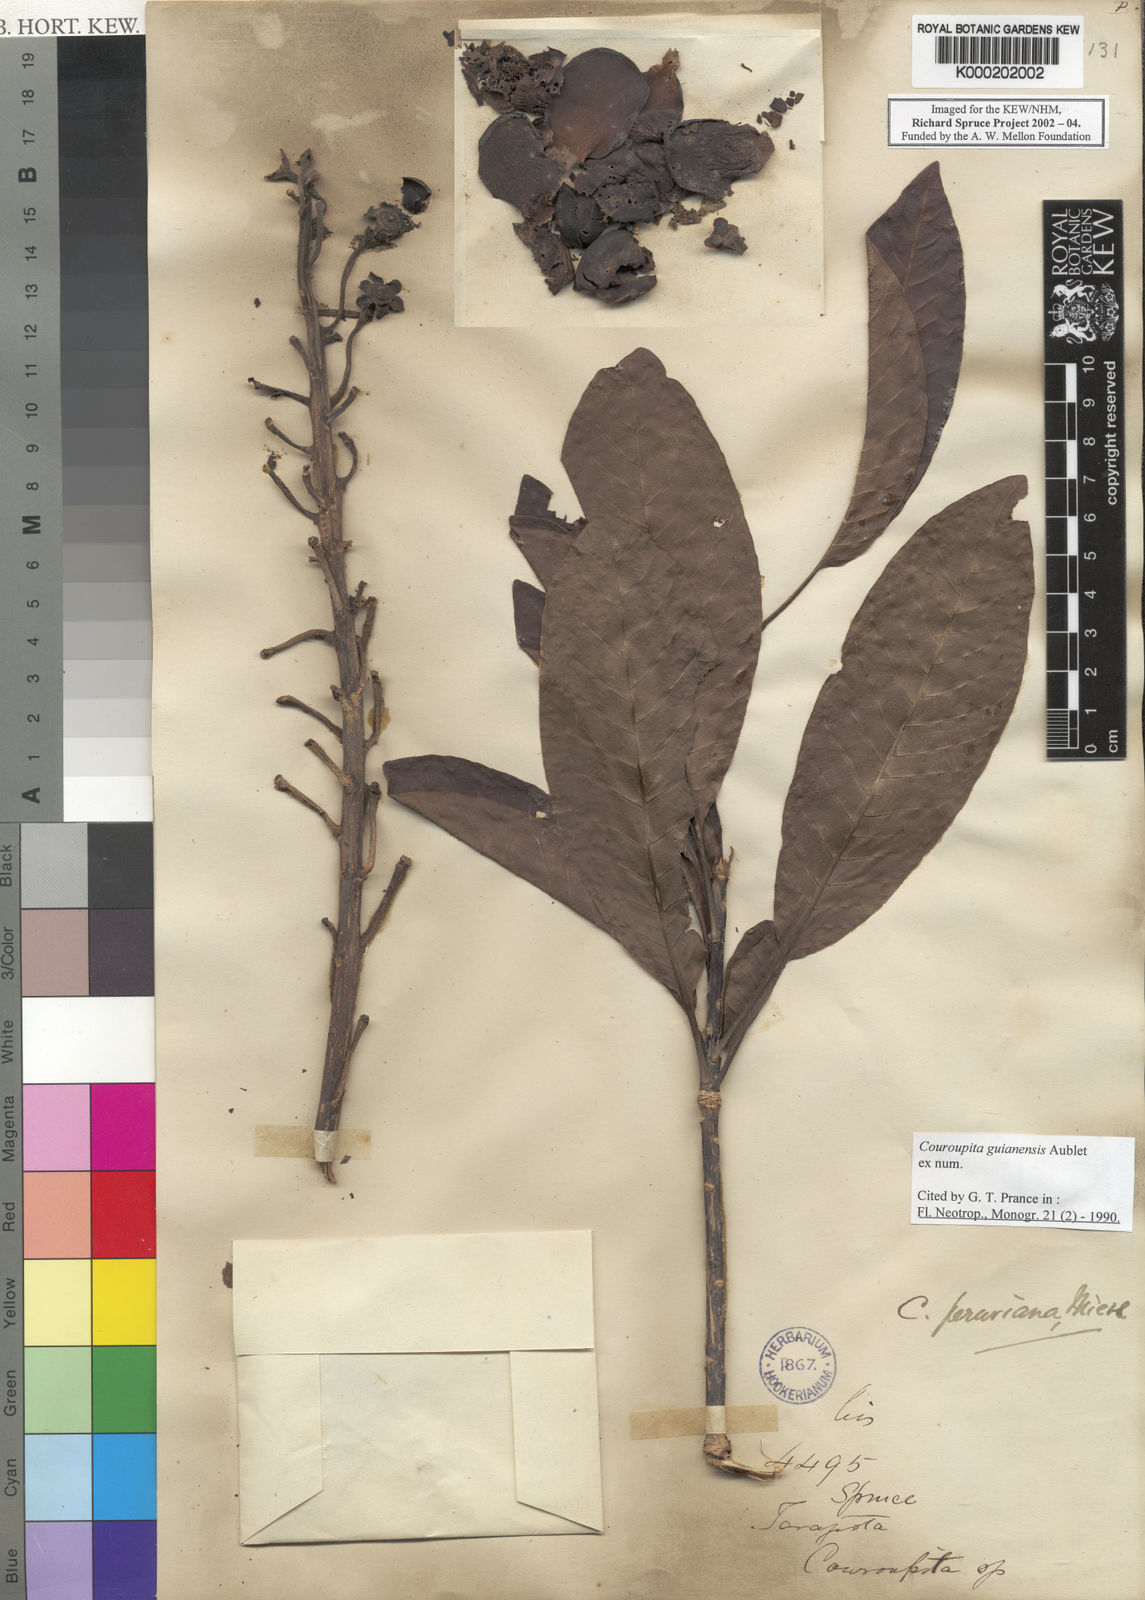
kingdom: Plantae
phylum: Tracheophyta
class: Magnoliopsida
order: Ericales
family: Lecythidaceae
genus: Couroupita
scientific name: Couroupita guianensis
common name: Cannonball tree
